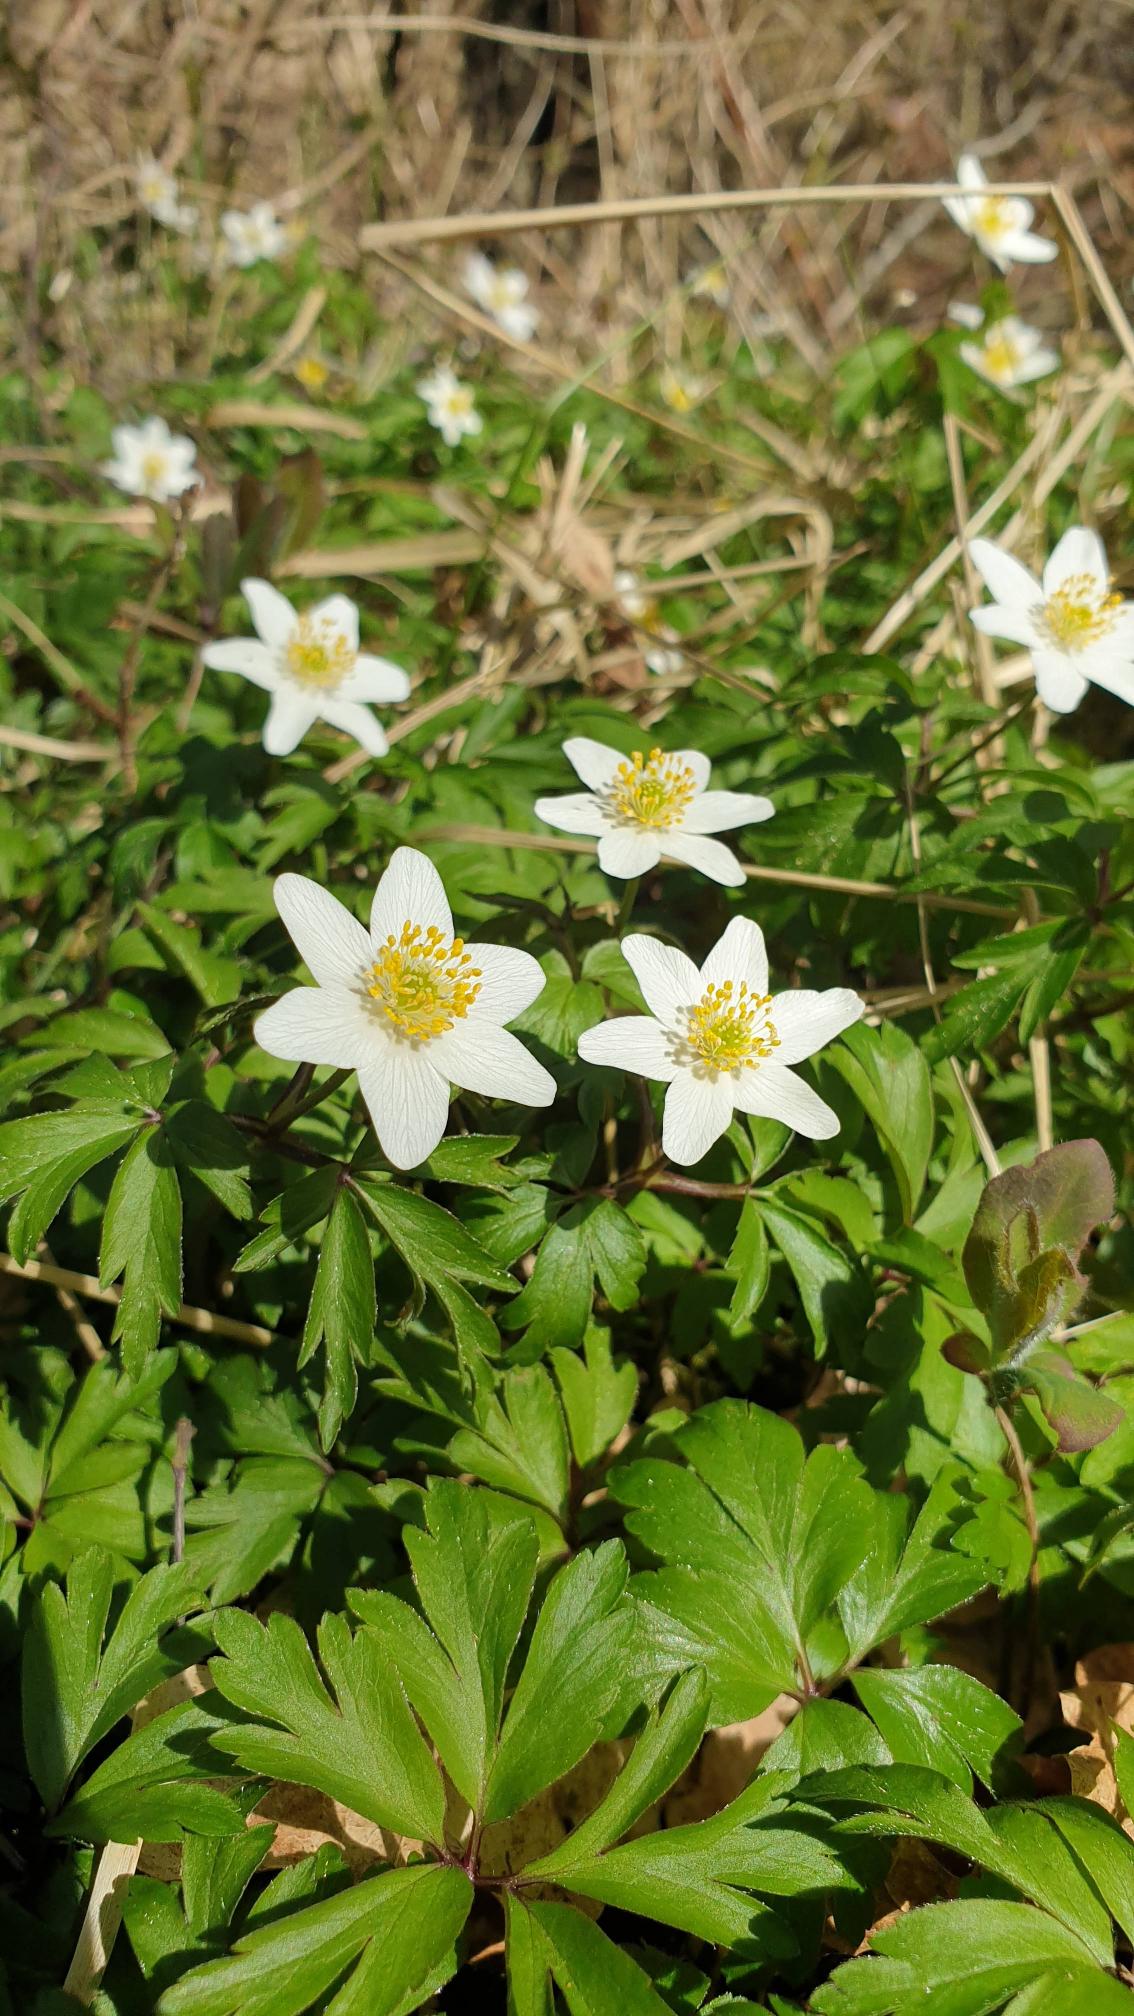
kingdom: Plantae
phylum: Tracheophyta
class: Magnoliopsida
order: Ranunculales
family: Ranunculaceae
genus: Anemone
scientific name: Anemone nemorosa
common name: Hvid anemone
